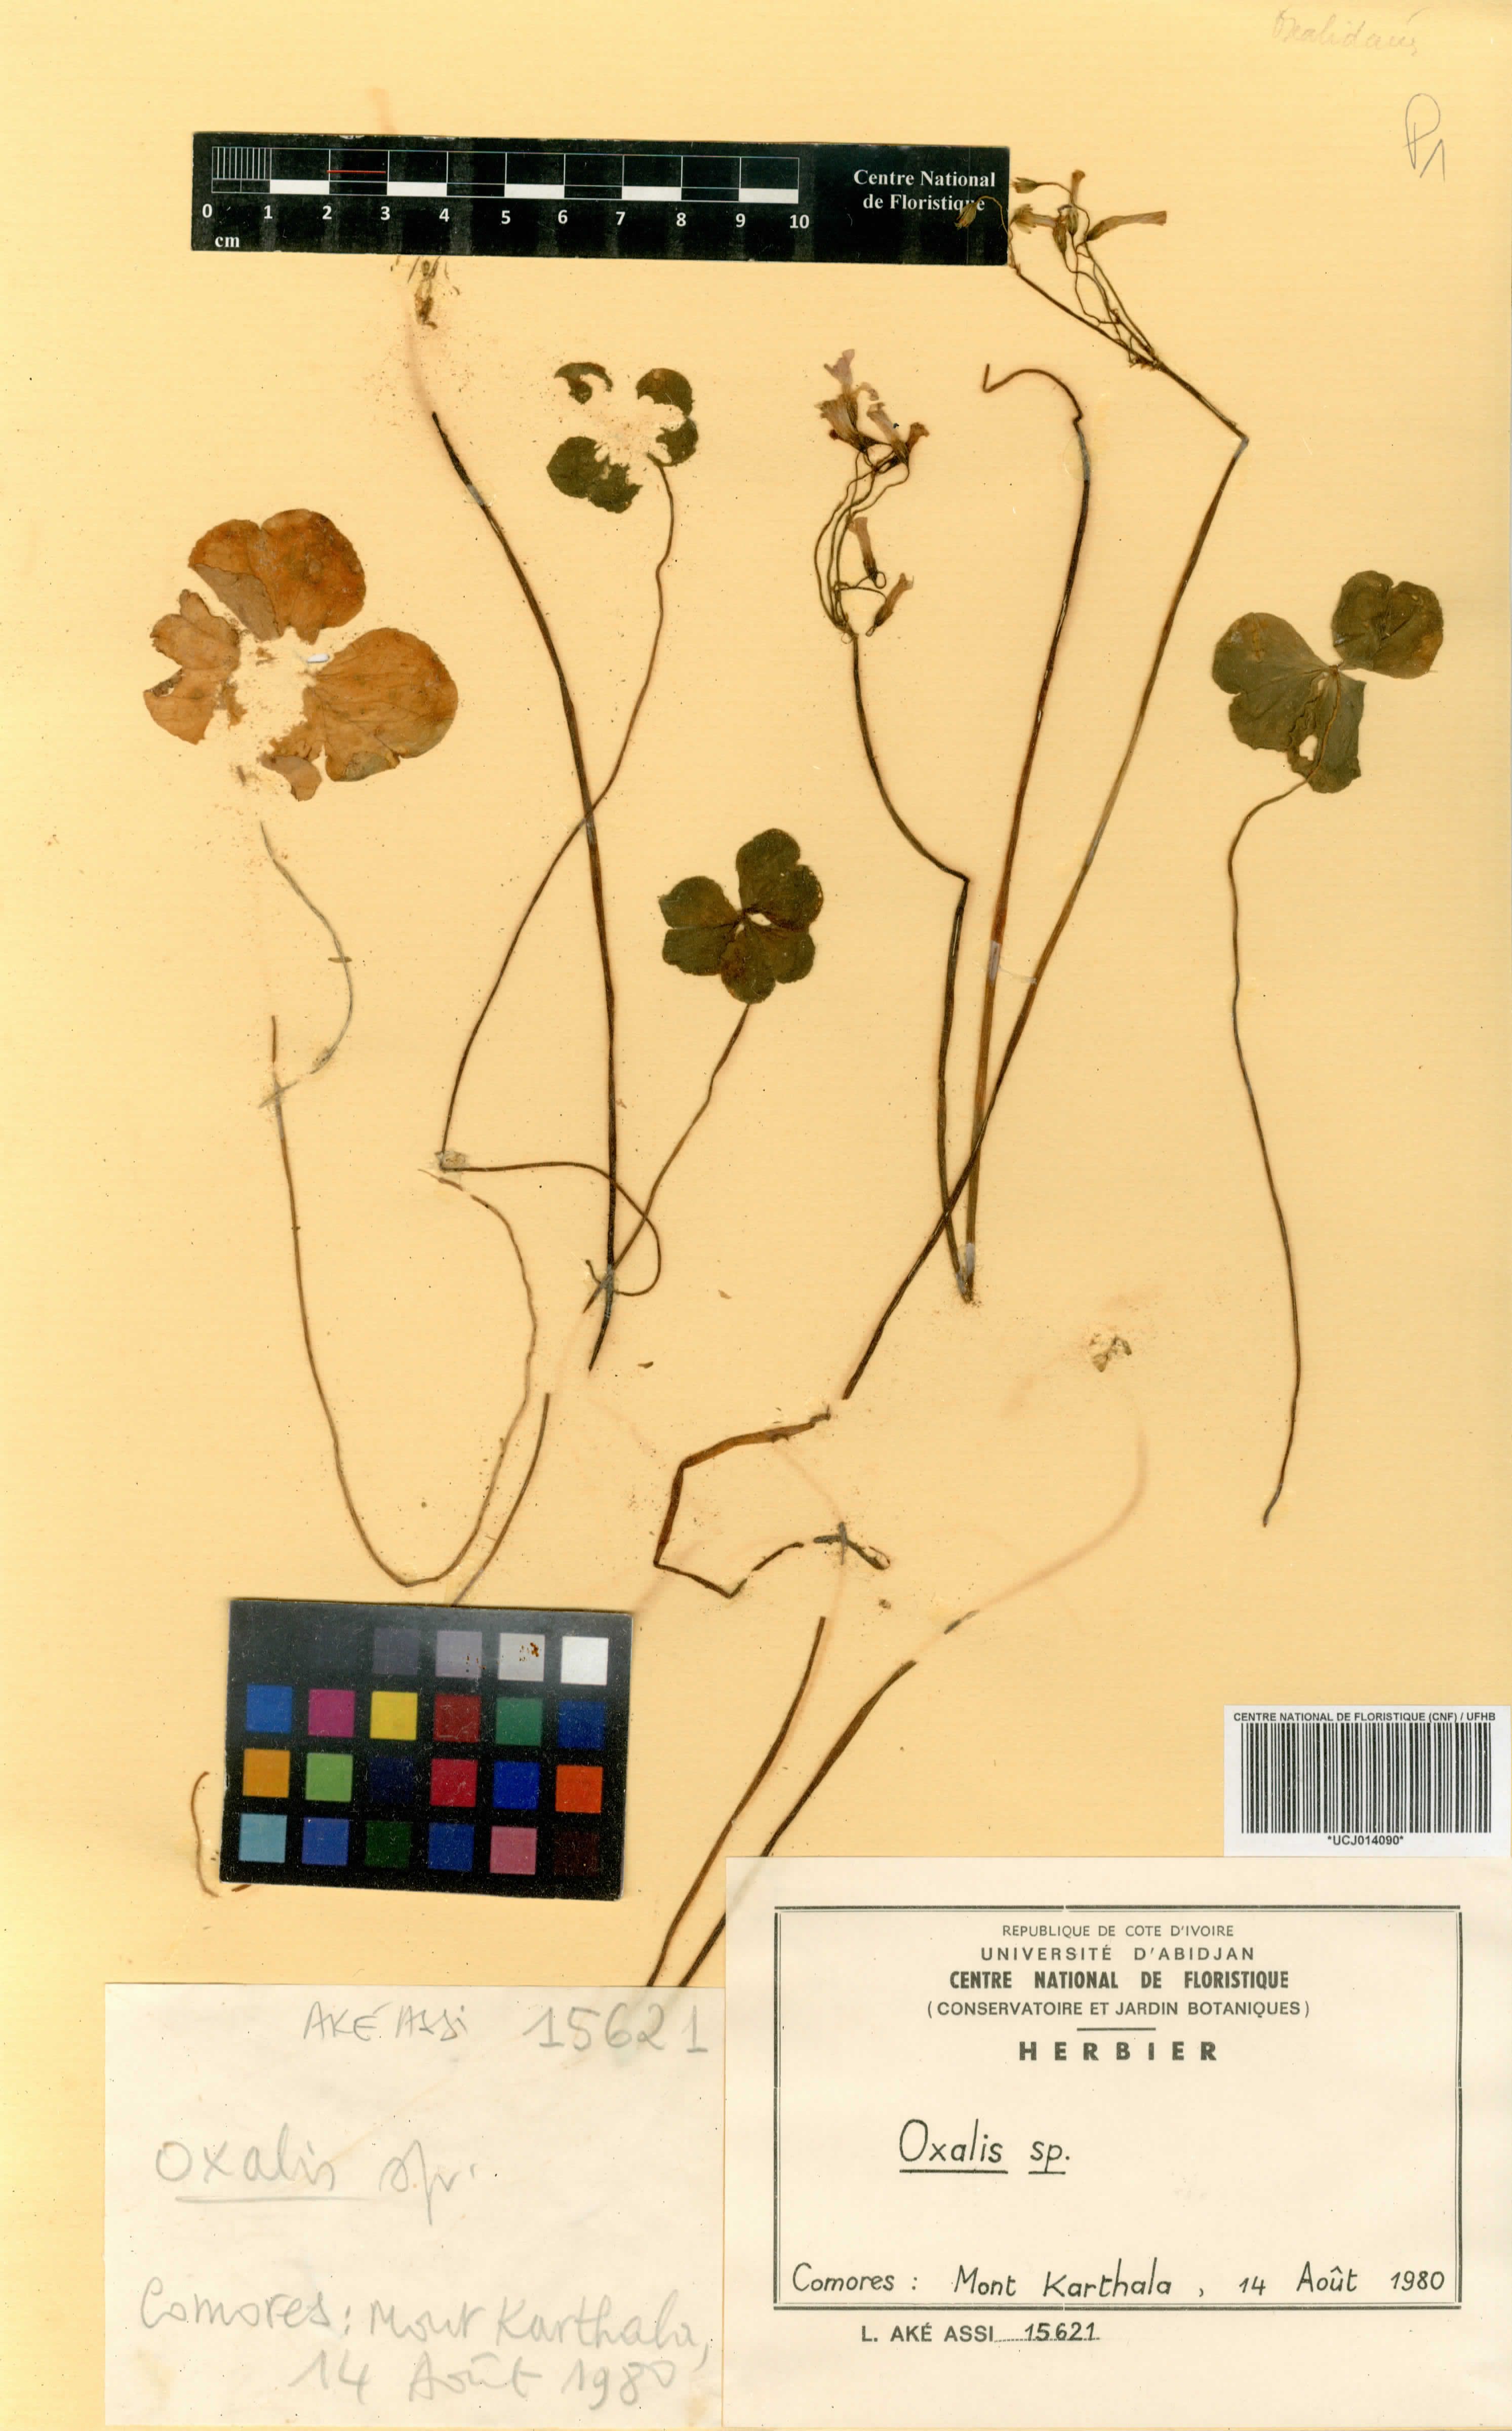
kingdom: Plantae
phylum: Tracheophyta
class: Magnoliopsida
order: Oxalidales
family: Oxalidaceae
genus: Oxalis
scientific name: Oxalis
